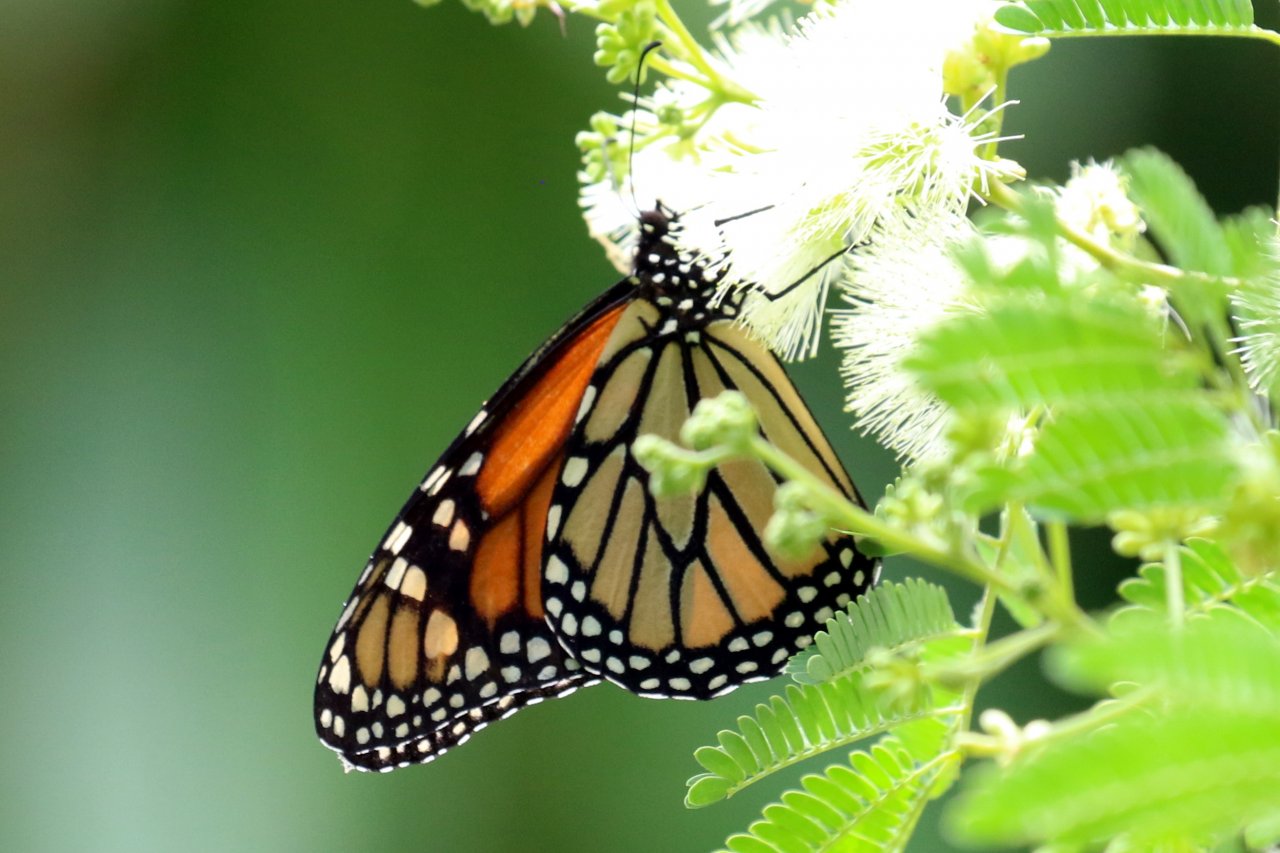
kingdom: Animalia
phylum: Arthropoda
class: Insecta
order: Lepidoptera
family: Nymphalidae
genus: Danaus
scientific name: Danaus plexippus
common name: Monarch
